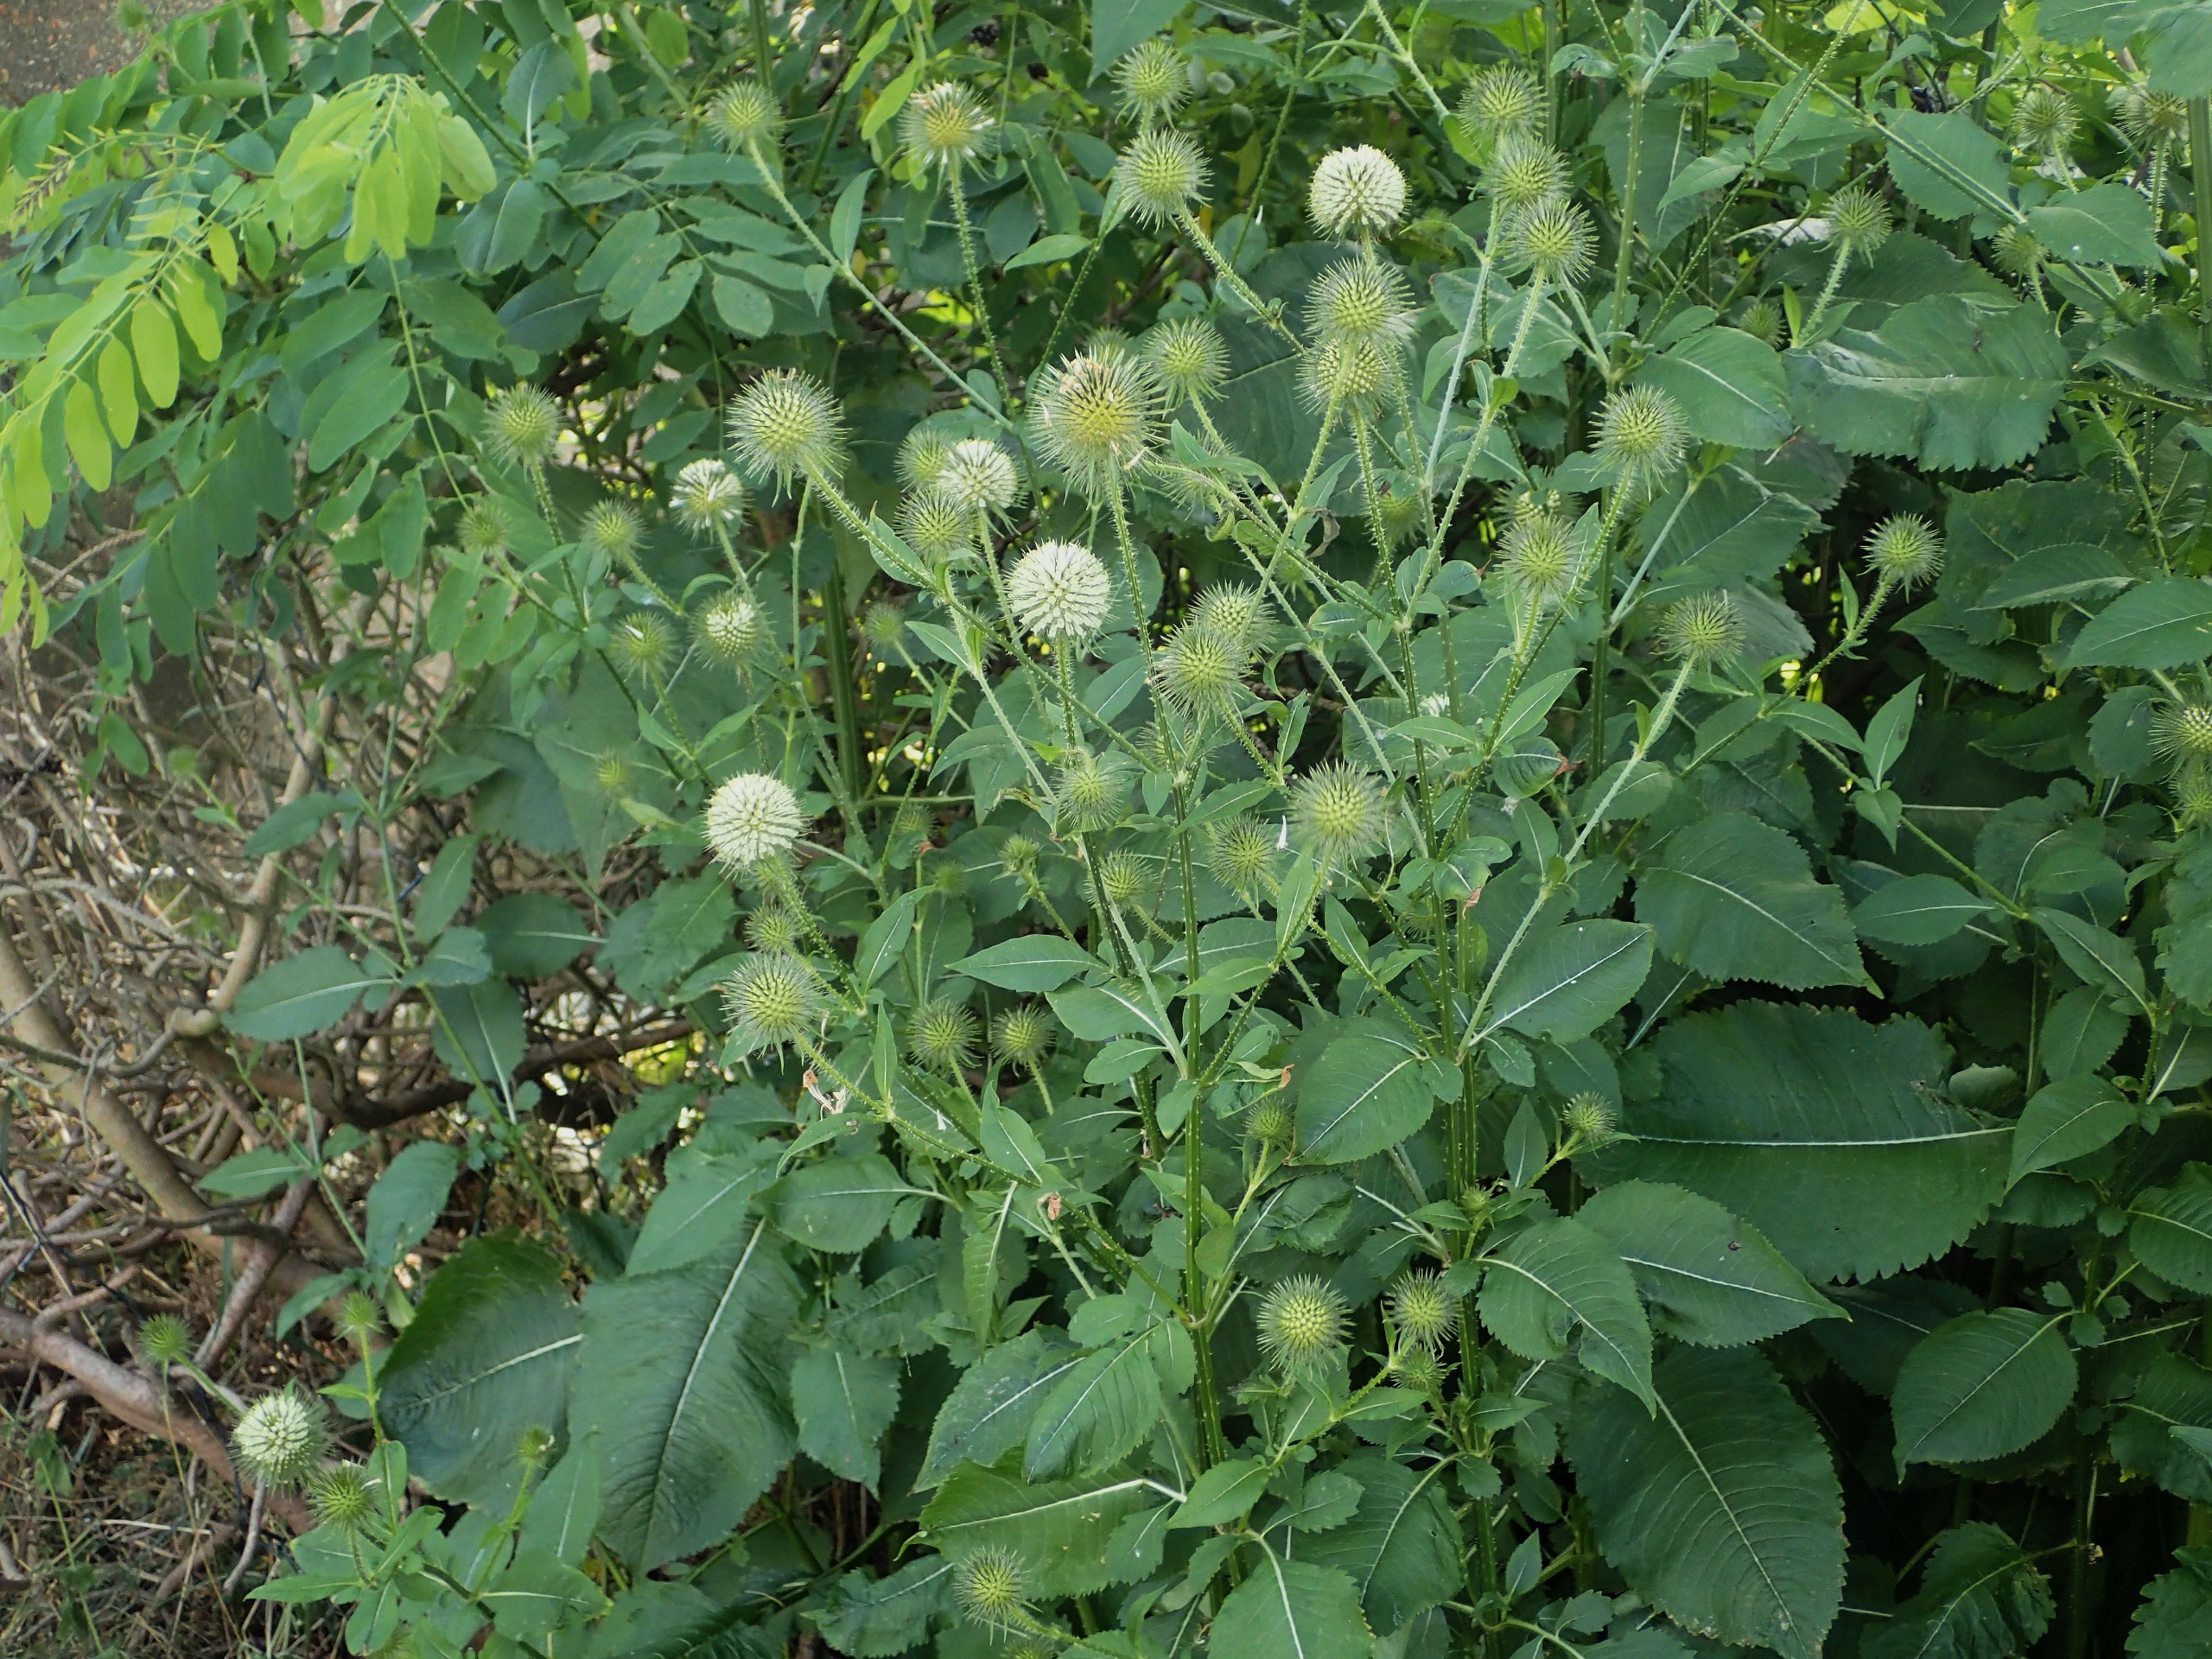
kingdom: Plantae
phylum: Tracheophyta
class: Magnoliopsida
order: Dipsacales
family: Caprifoliaceae
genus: Dipsacus
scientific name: Dipsacus strigosus
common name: Pindsvin-kartebolle
